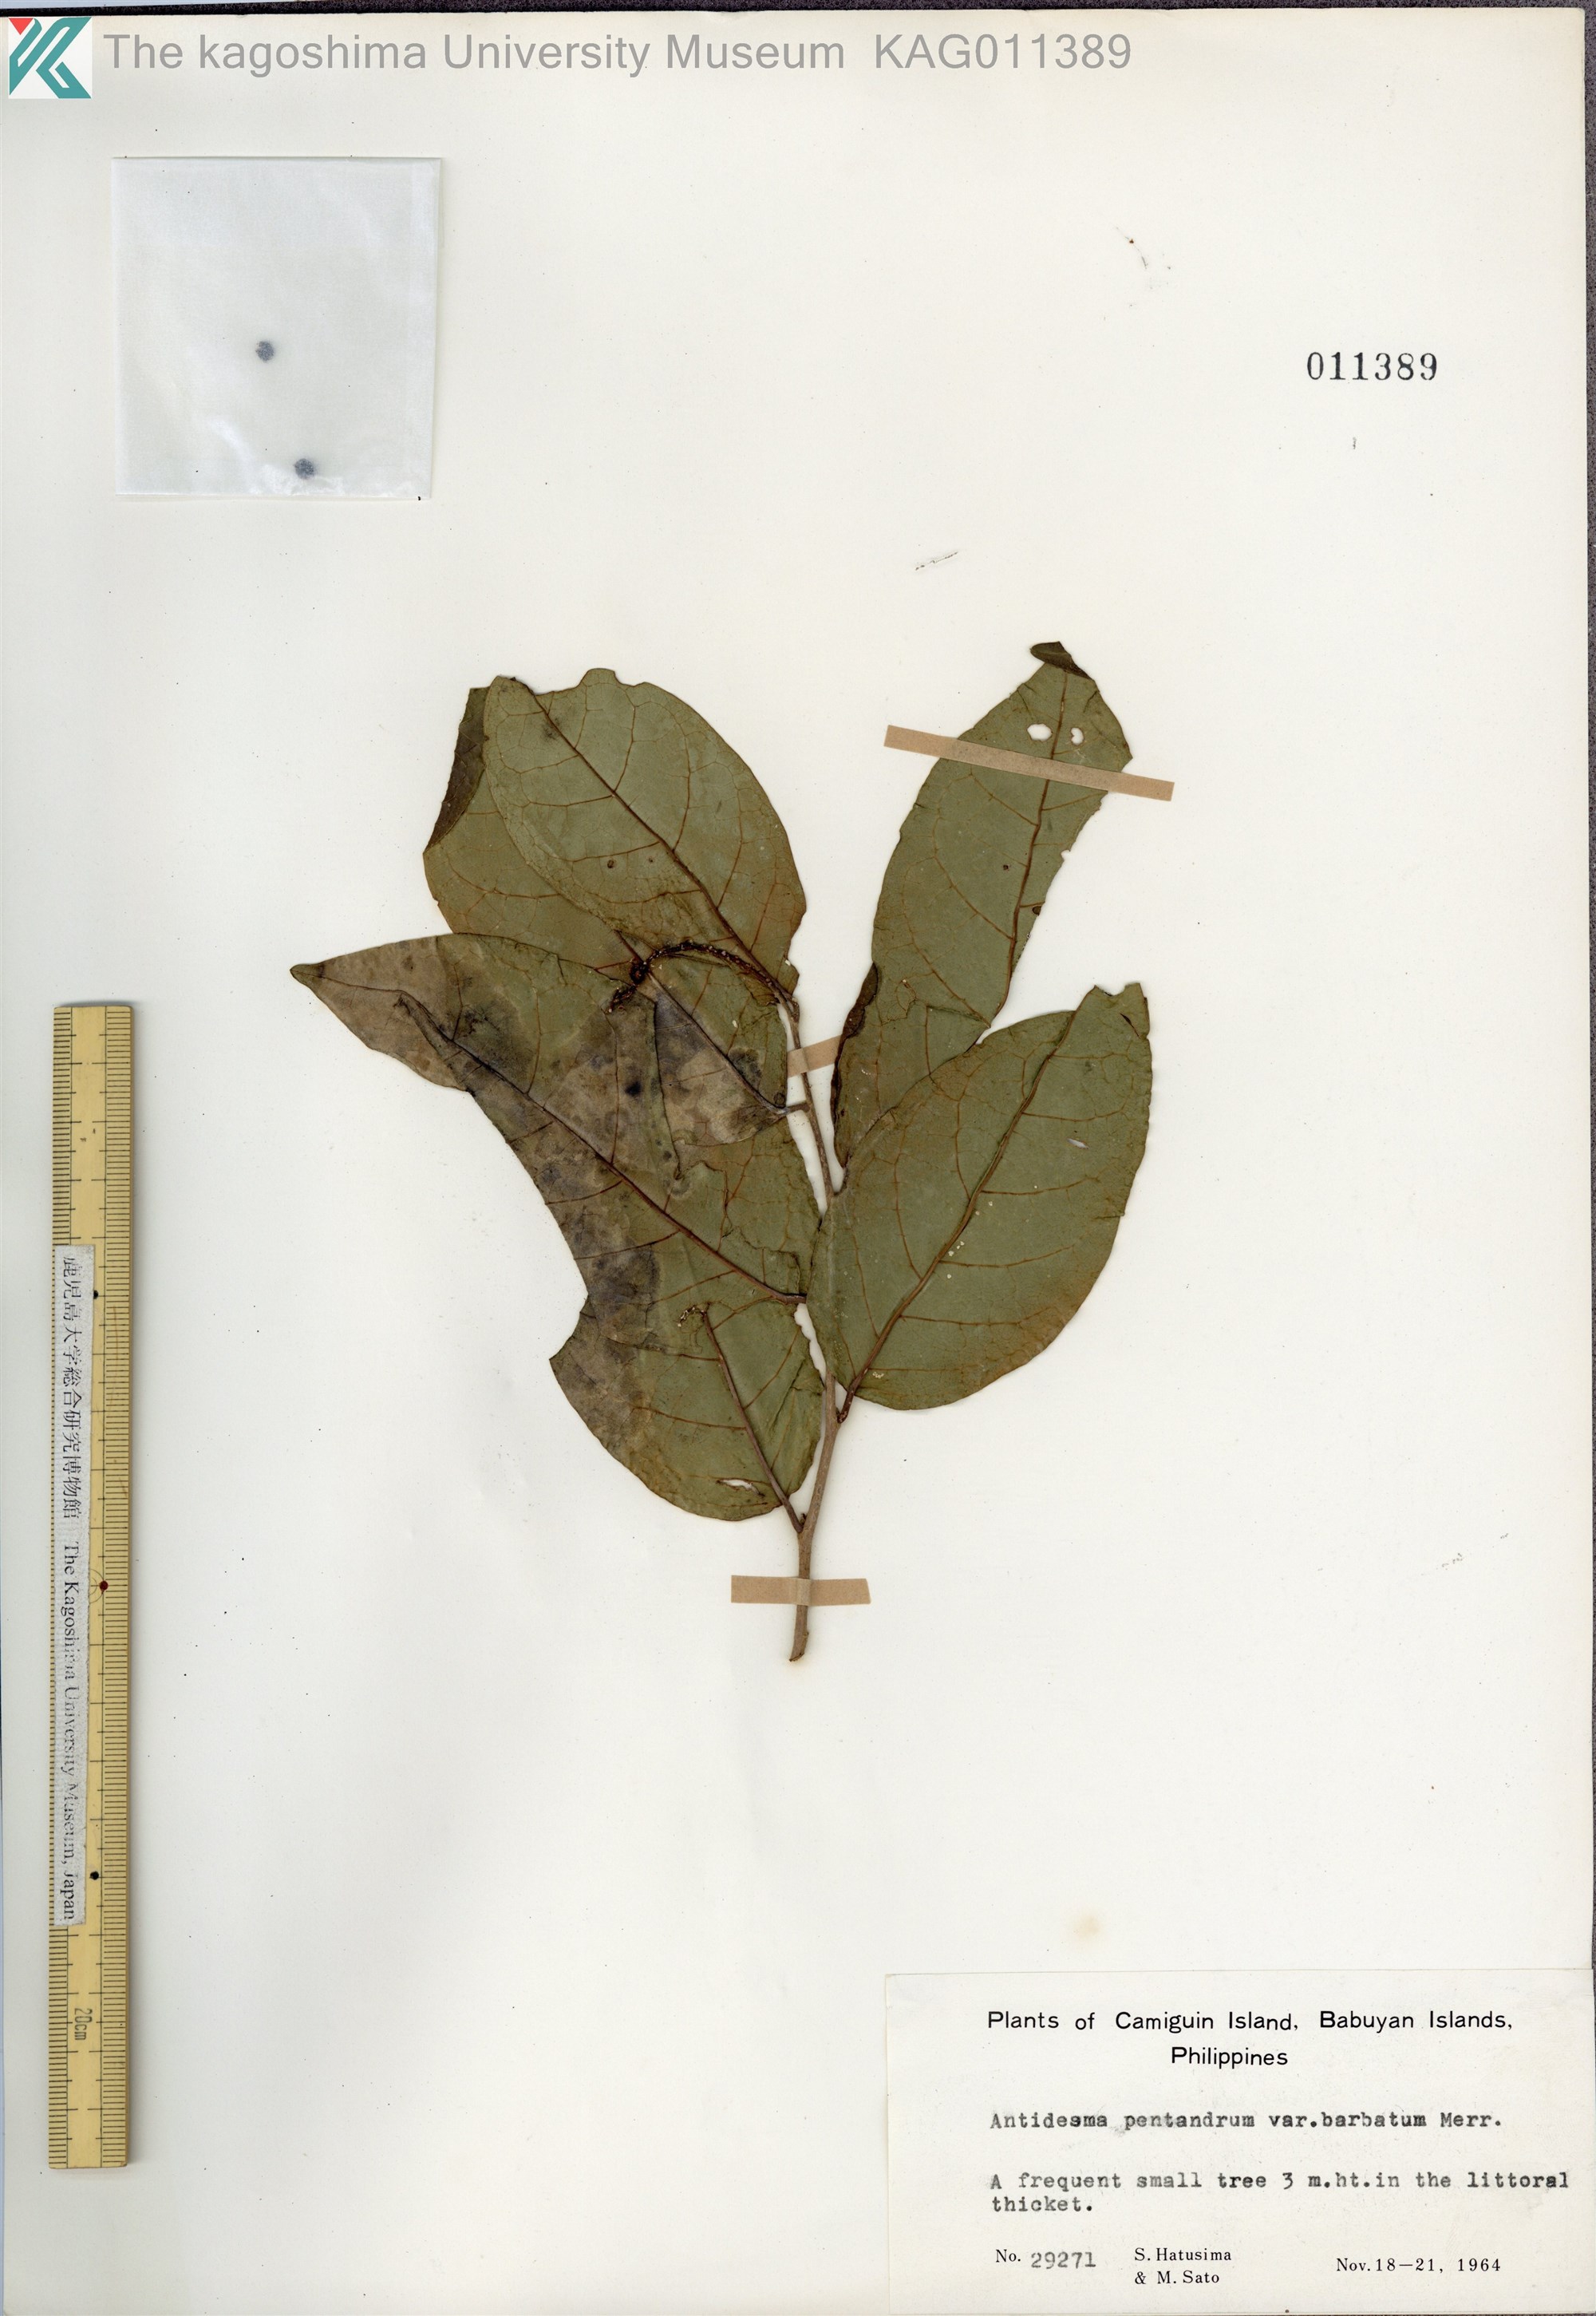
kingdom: Plantae
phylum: Tracheophyta
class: Magnoliopsida
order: Malpighiales
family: Phyllanthaceae
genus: Antidesma
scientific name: Antidesma montanum
